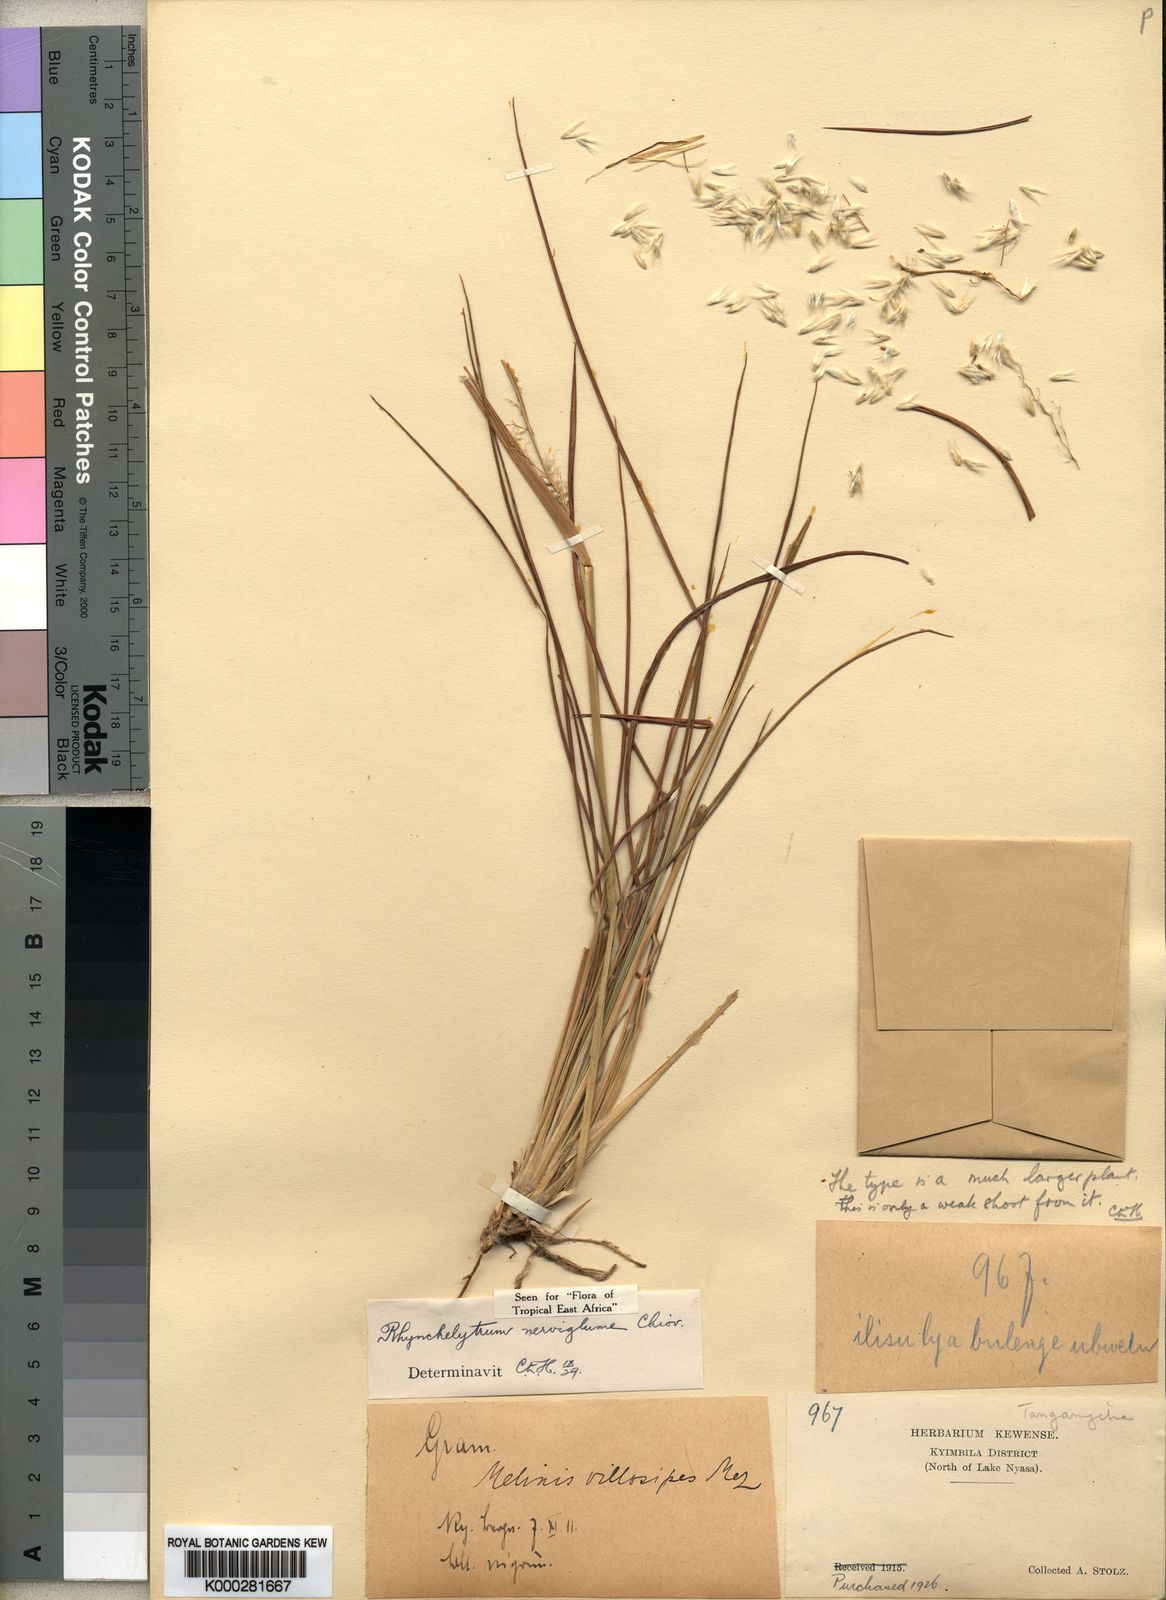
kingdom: Plantae
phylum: Tracheophyta
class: Liliopsida
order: Poales
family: Poaceae
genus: Melinis
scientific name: Melinis nerviglumis
